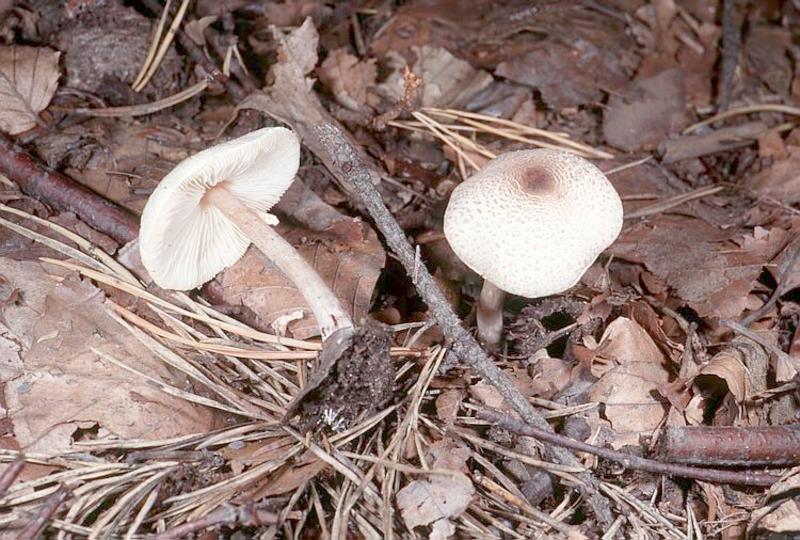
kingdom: Fungi
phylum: Basidiomycota
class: Agaricomycetes
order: Agaricales
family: Agaricaceae
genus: Lepiota
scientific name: Lepiota cristata
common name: Stinking dapperling
